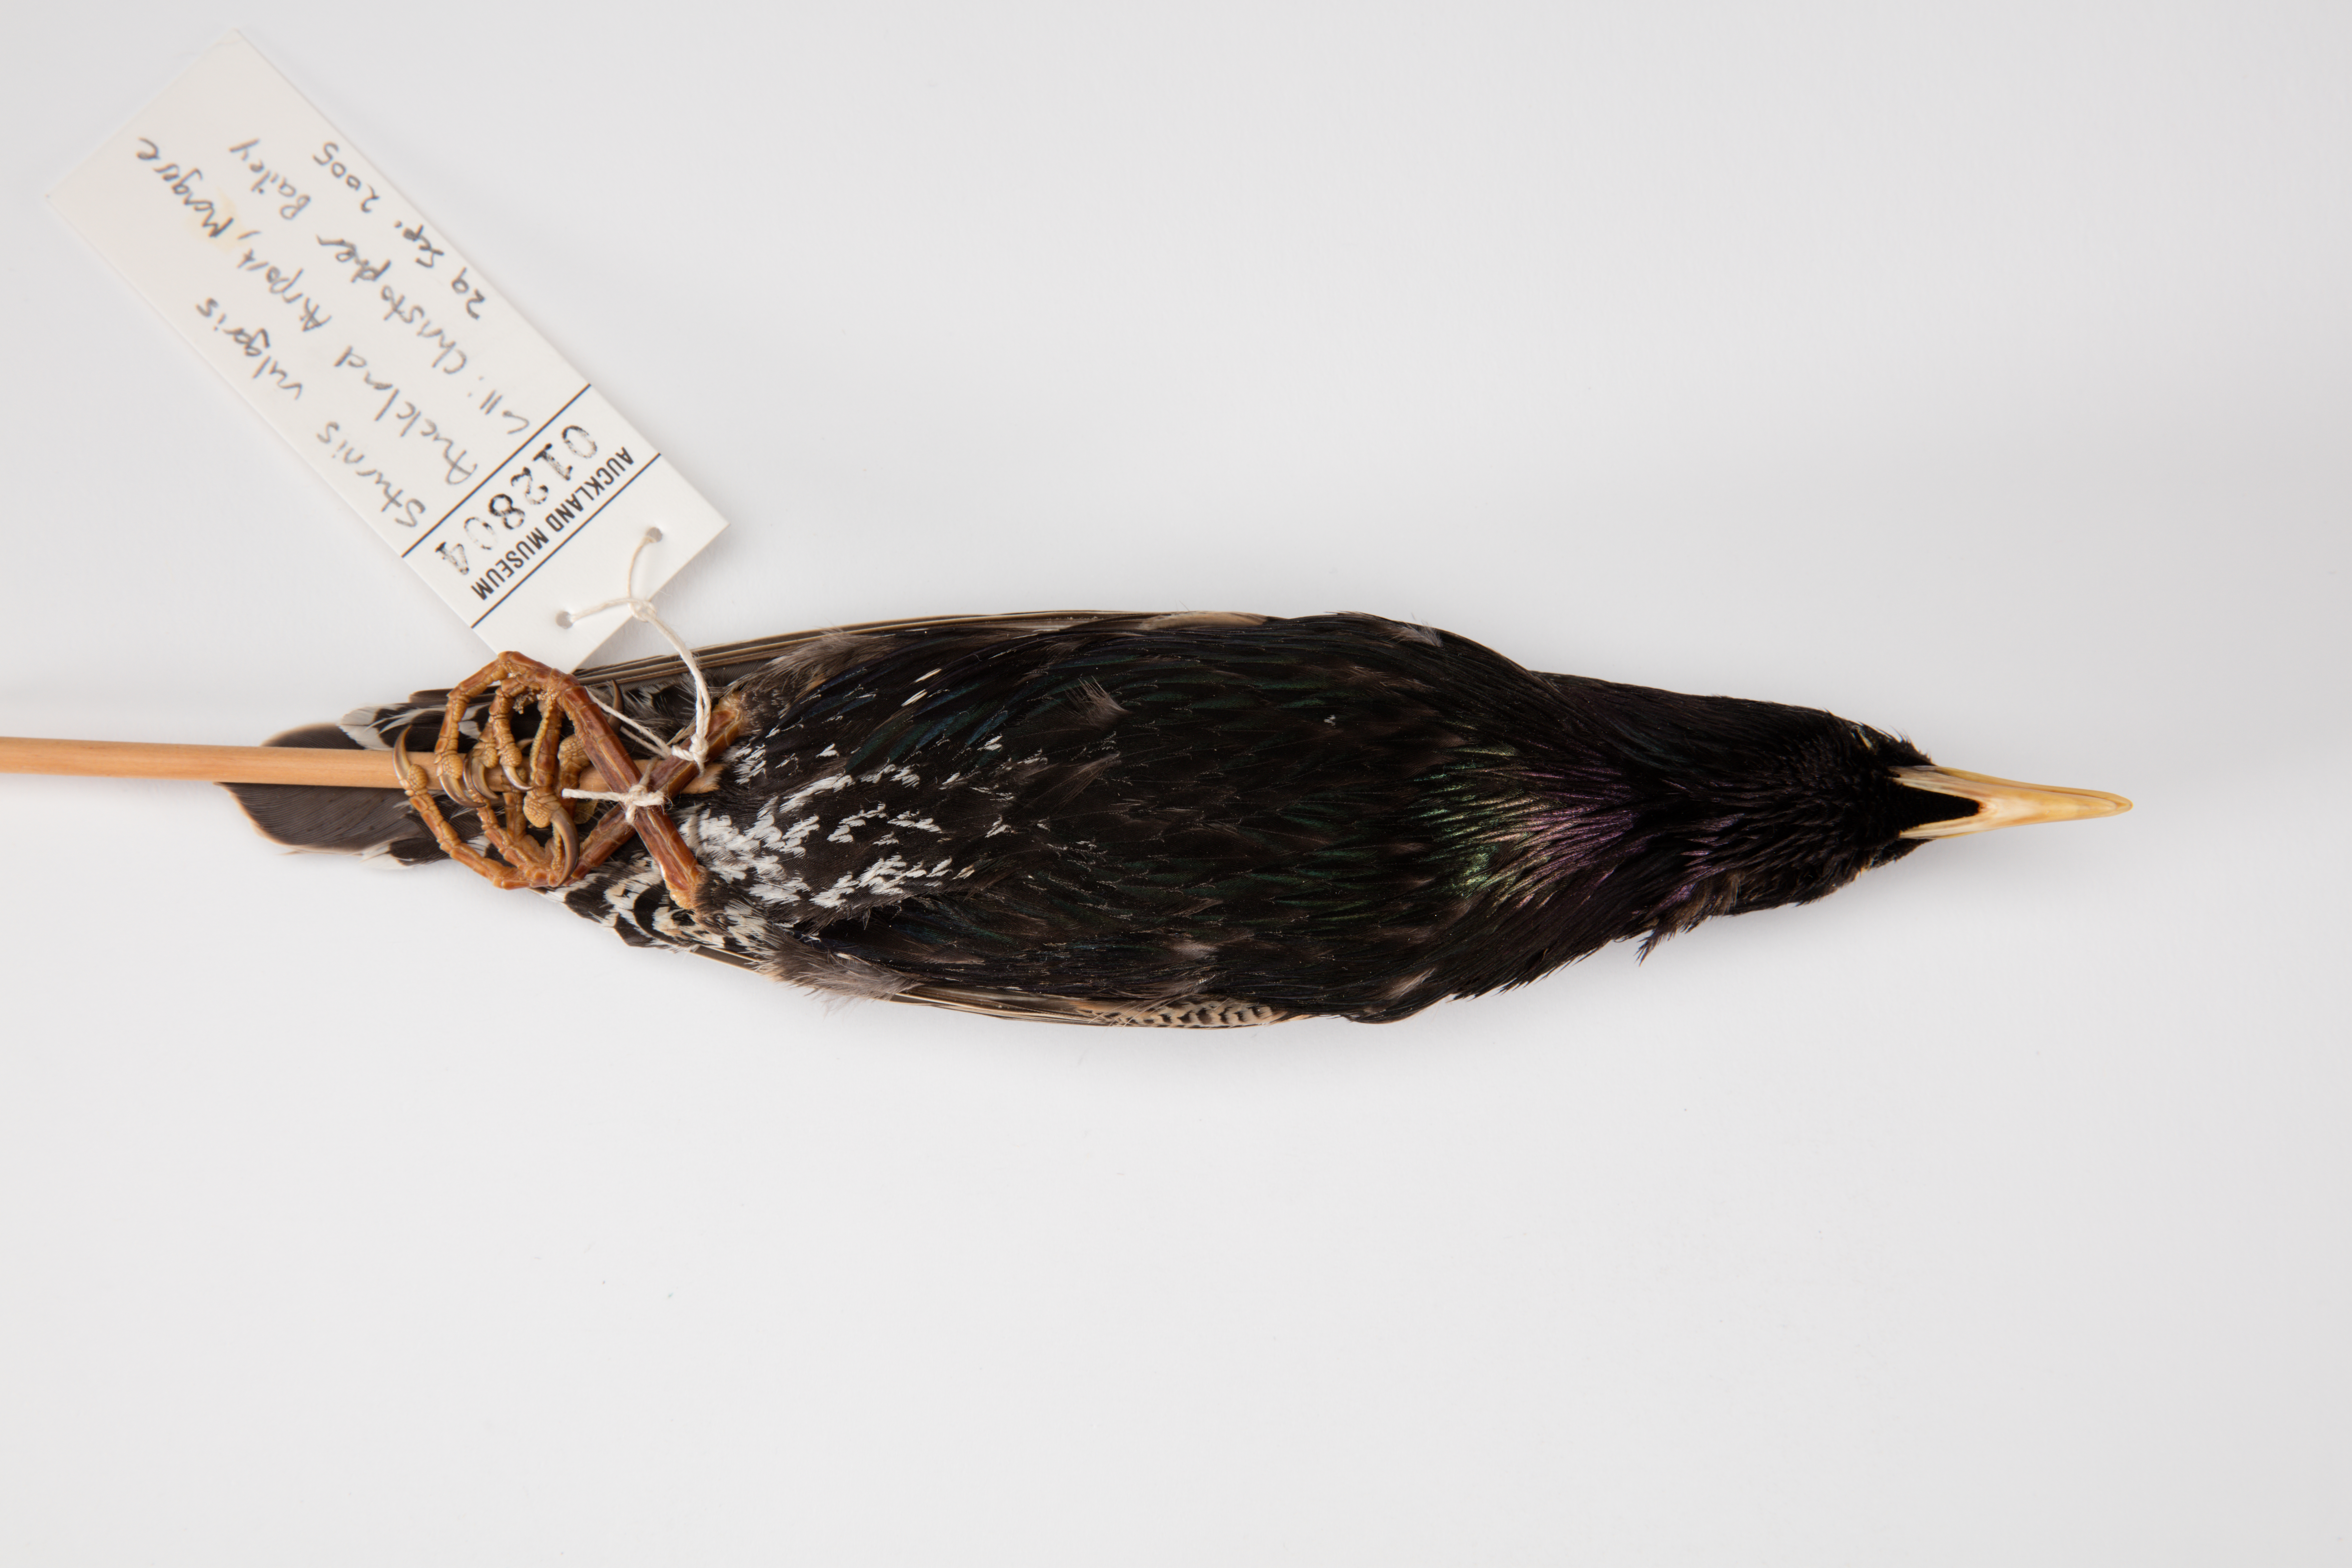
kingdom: Animalia
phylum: Chordata
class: Aves
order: Passeriformes
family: Sturnidae
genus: Sturnus
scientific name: Sturnus vulgaris
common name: Common starling
